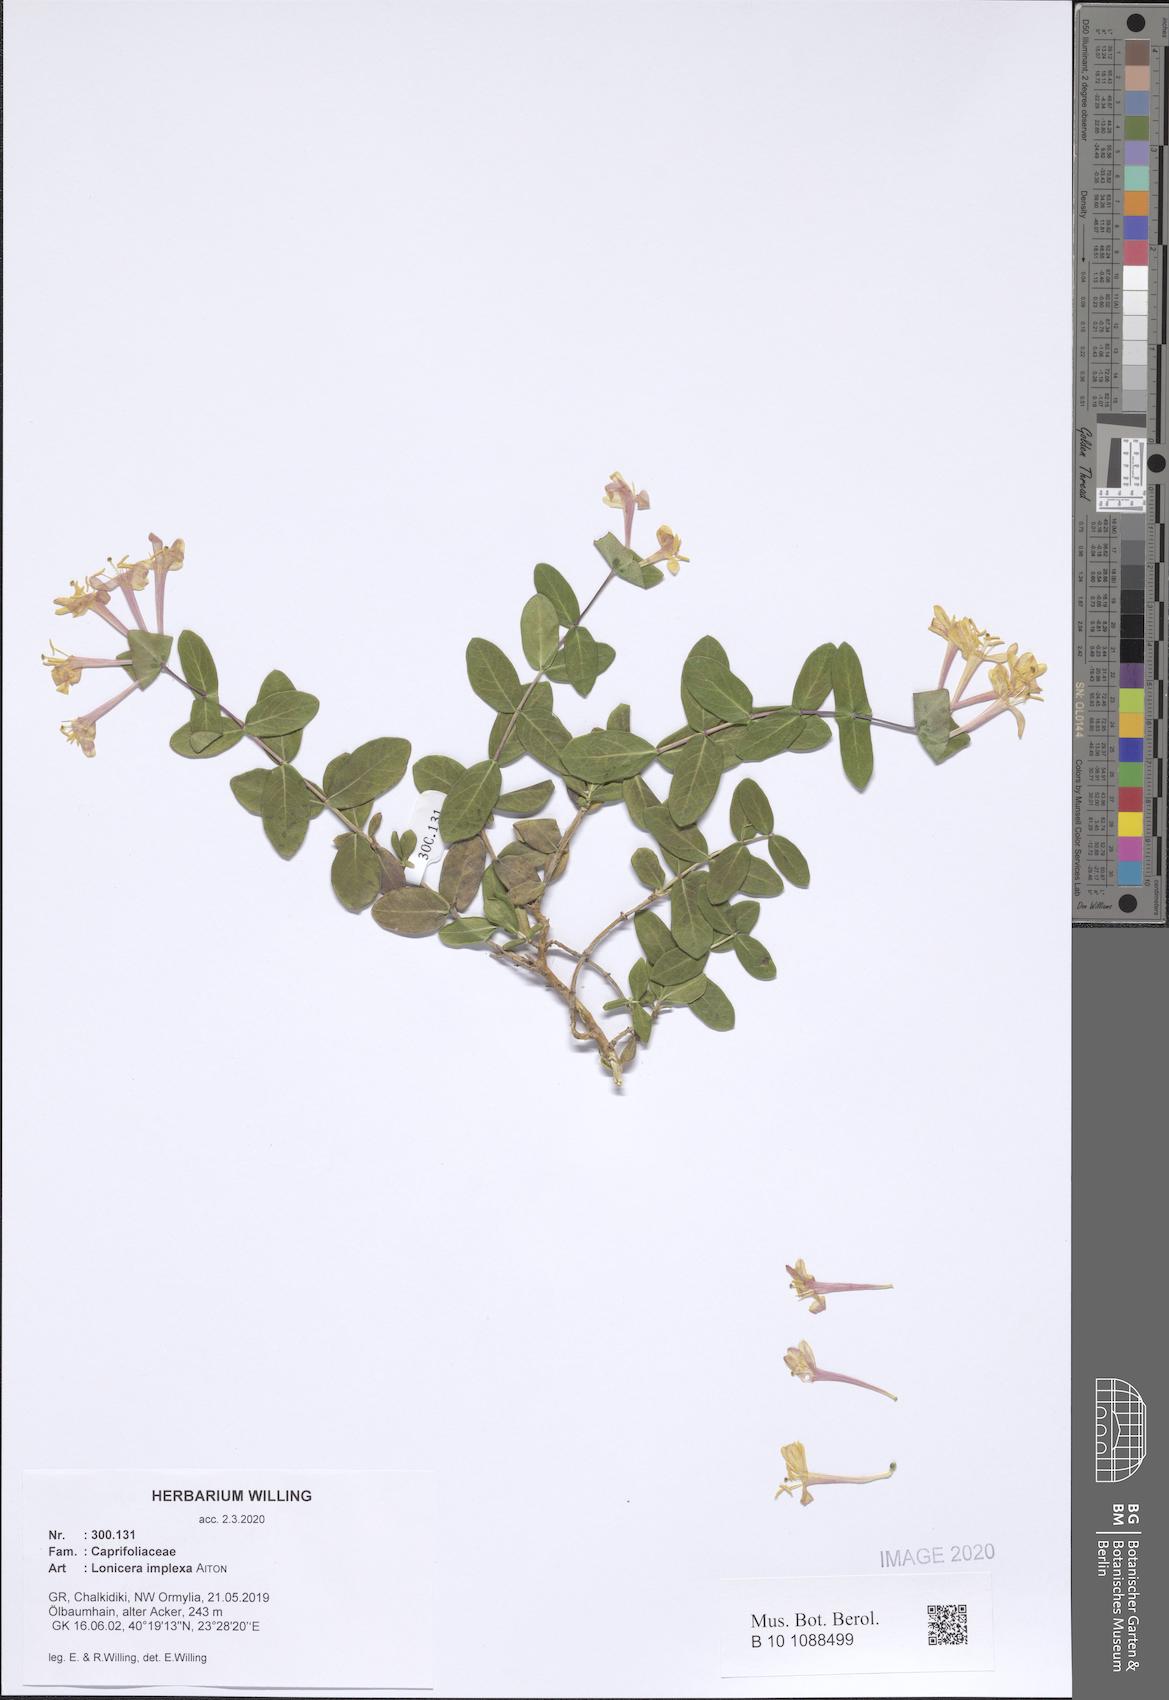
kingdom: Plantae
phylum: Tracheophyta
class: Magnoliopsida
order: Dipsacales
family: Caprifoliaceae
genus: Lonicera
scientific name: Lonicera implexa
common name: Minorca honeysuckle
